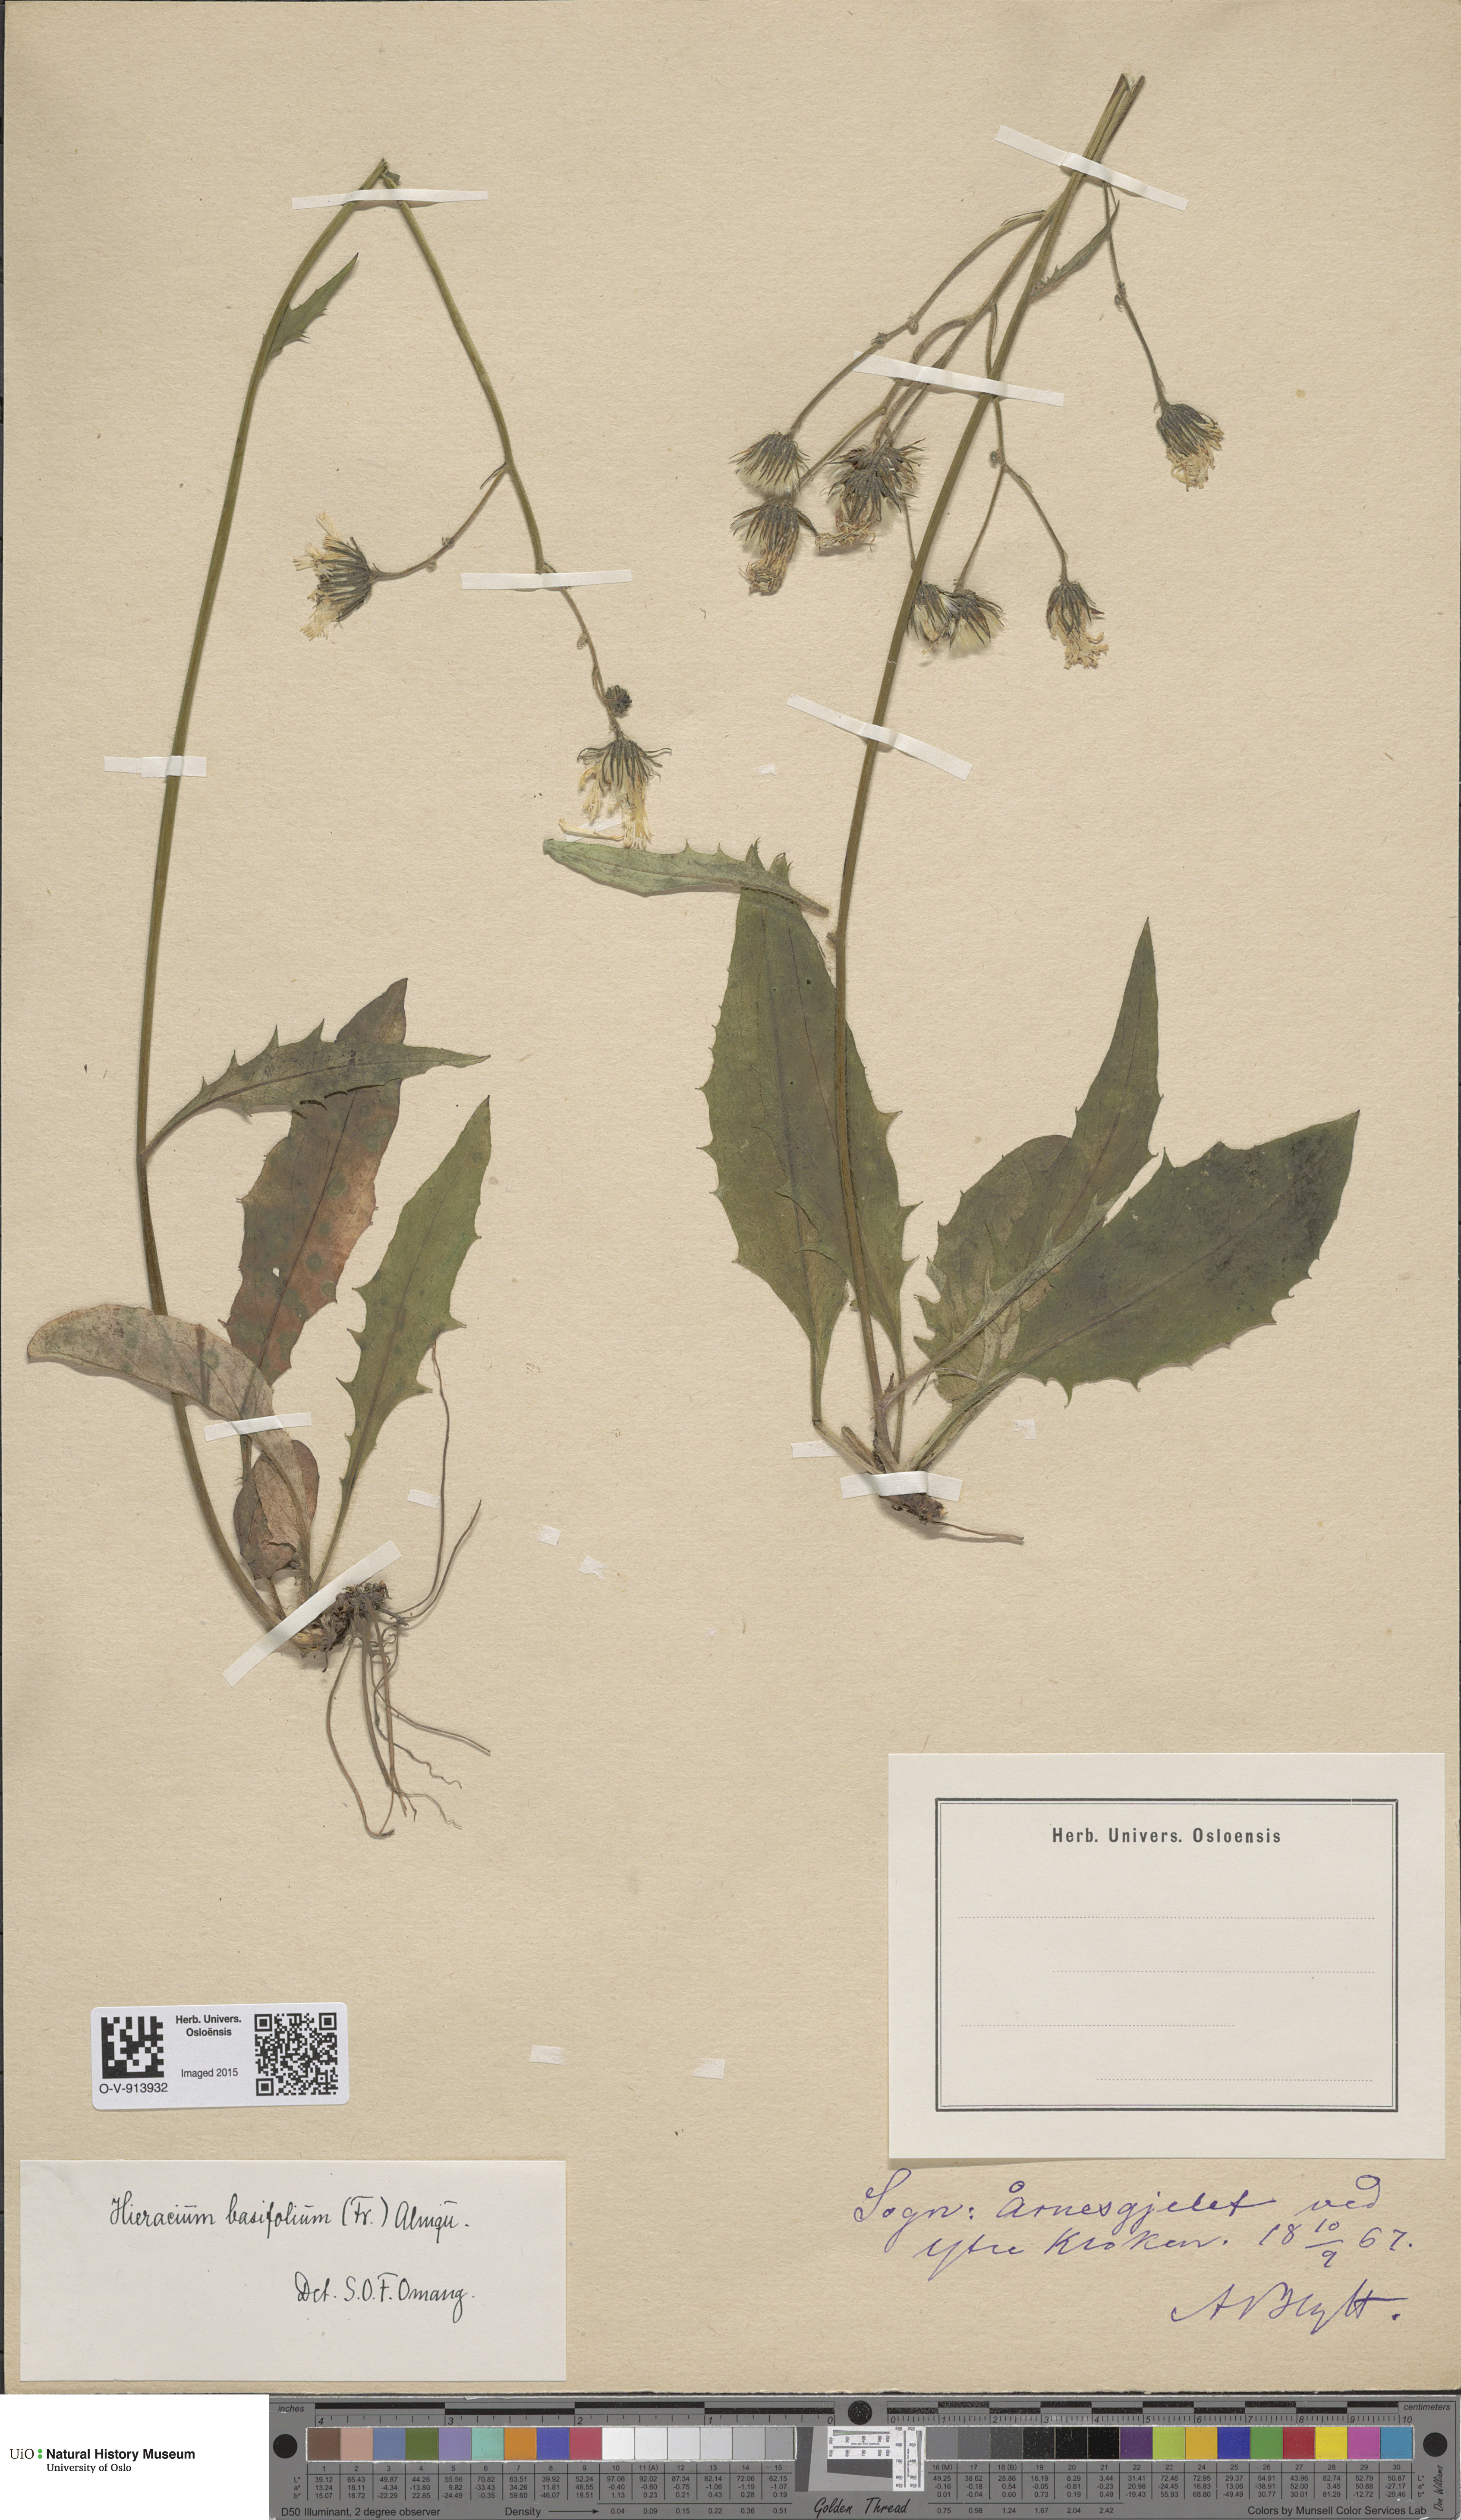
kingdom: Plantae
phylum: Tracheophyta
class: Magnoliopsida
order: Asterales
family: Asteraceae
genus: Hieracium
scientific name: Hieracium basifolium
